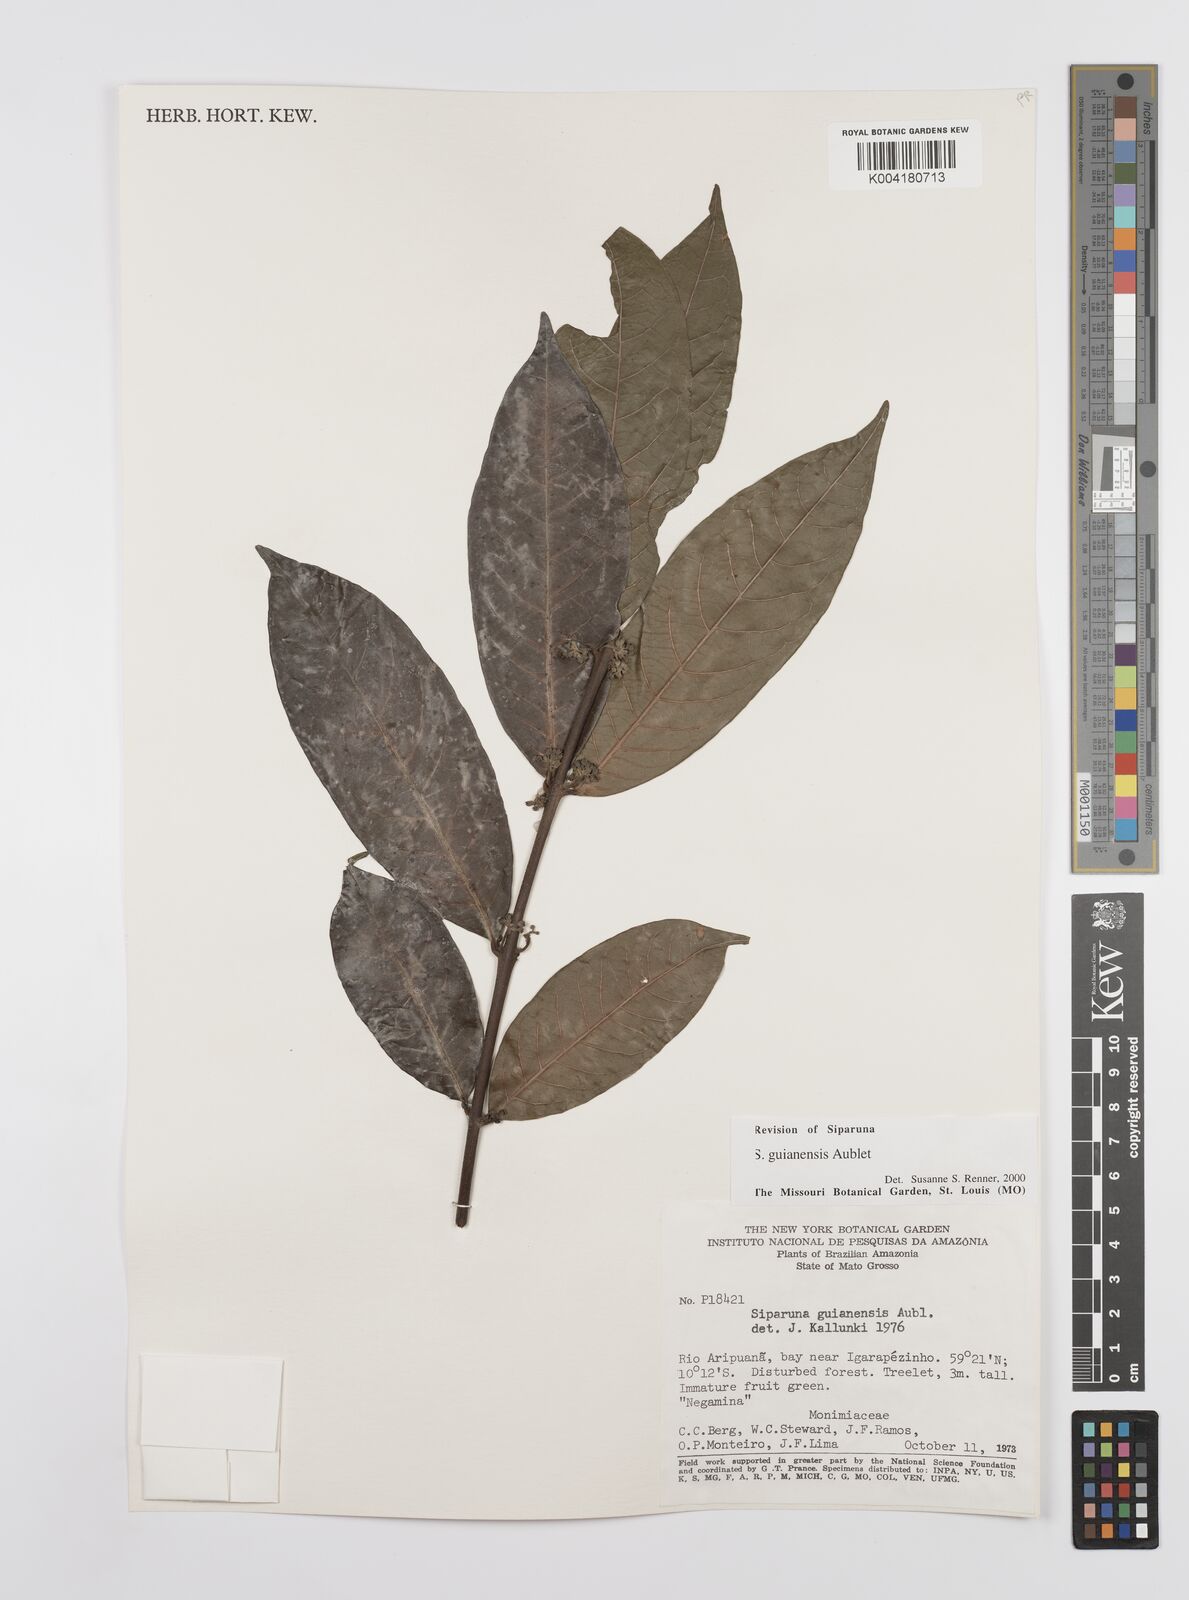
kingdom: Plantae
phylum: Tracheophyta
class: Magnoliopsida
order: Laurales
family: Siparunaceae
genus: Siparuna
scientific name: Siparuna guianensis
